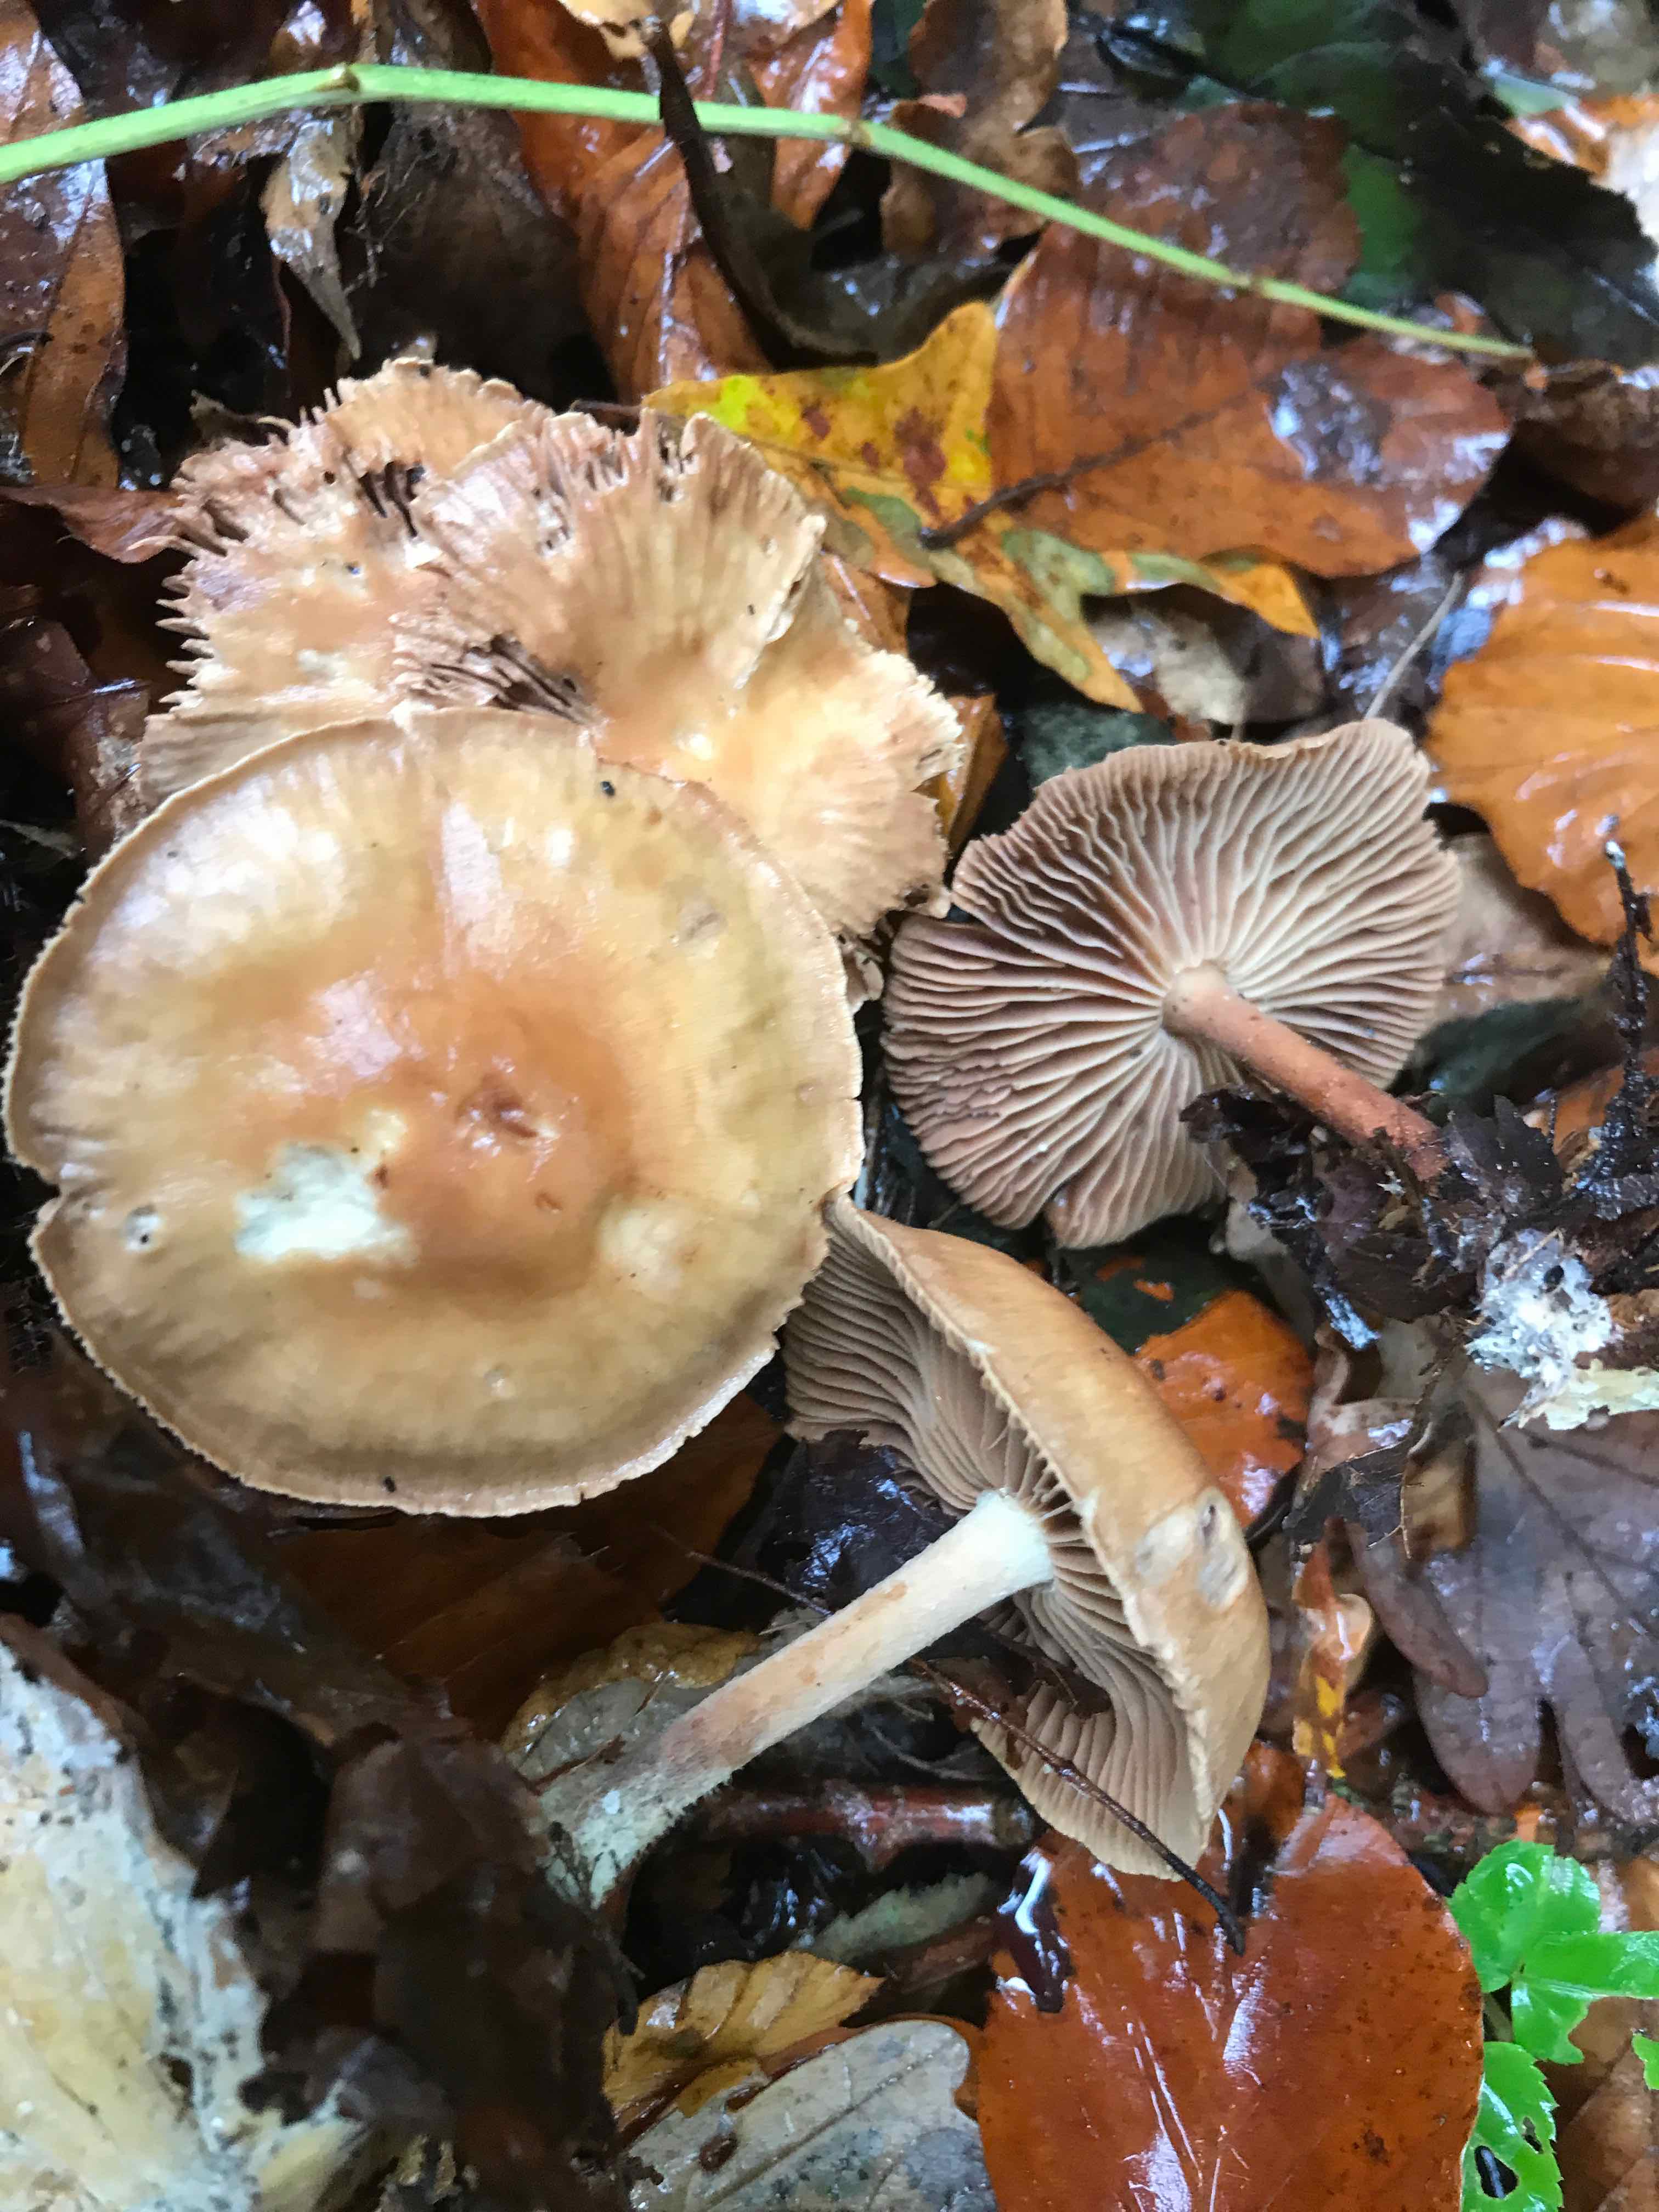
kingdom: Fungi
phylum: Basidiomycota
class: Agaricomycetes
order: Agaricales
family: Omphalotaceae
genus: Collybiopsis
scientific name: Collybiopsis peronata
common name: bestøvlet fladhat
